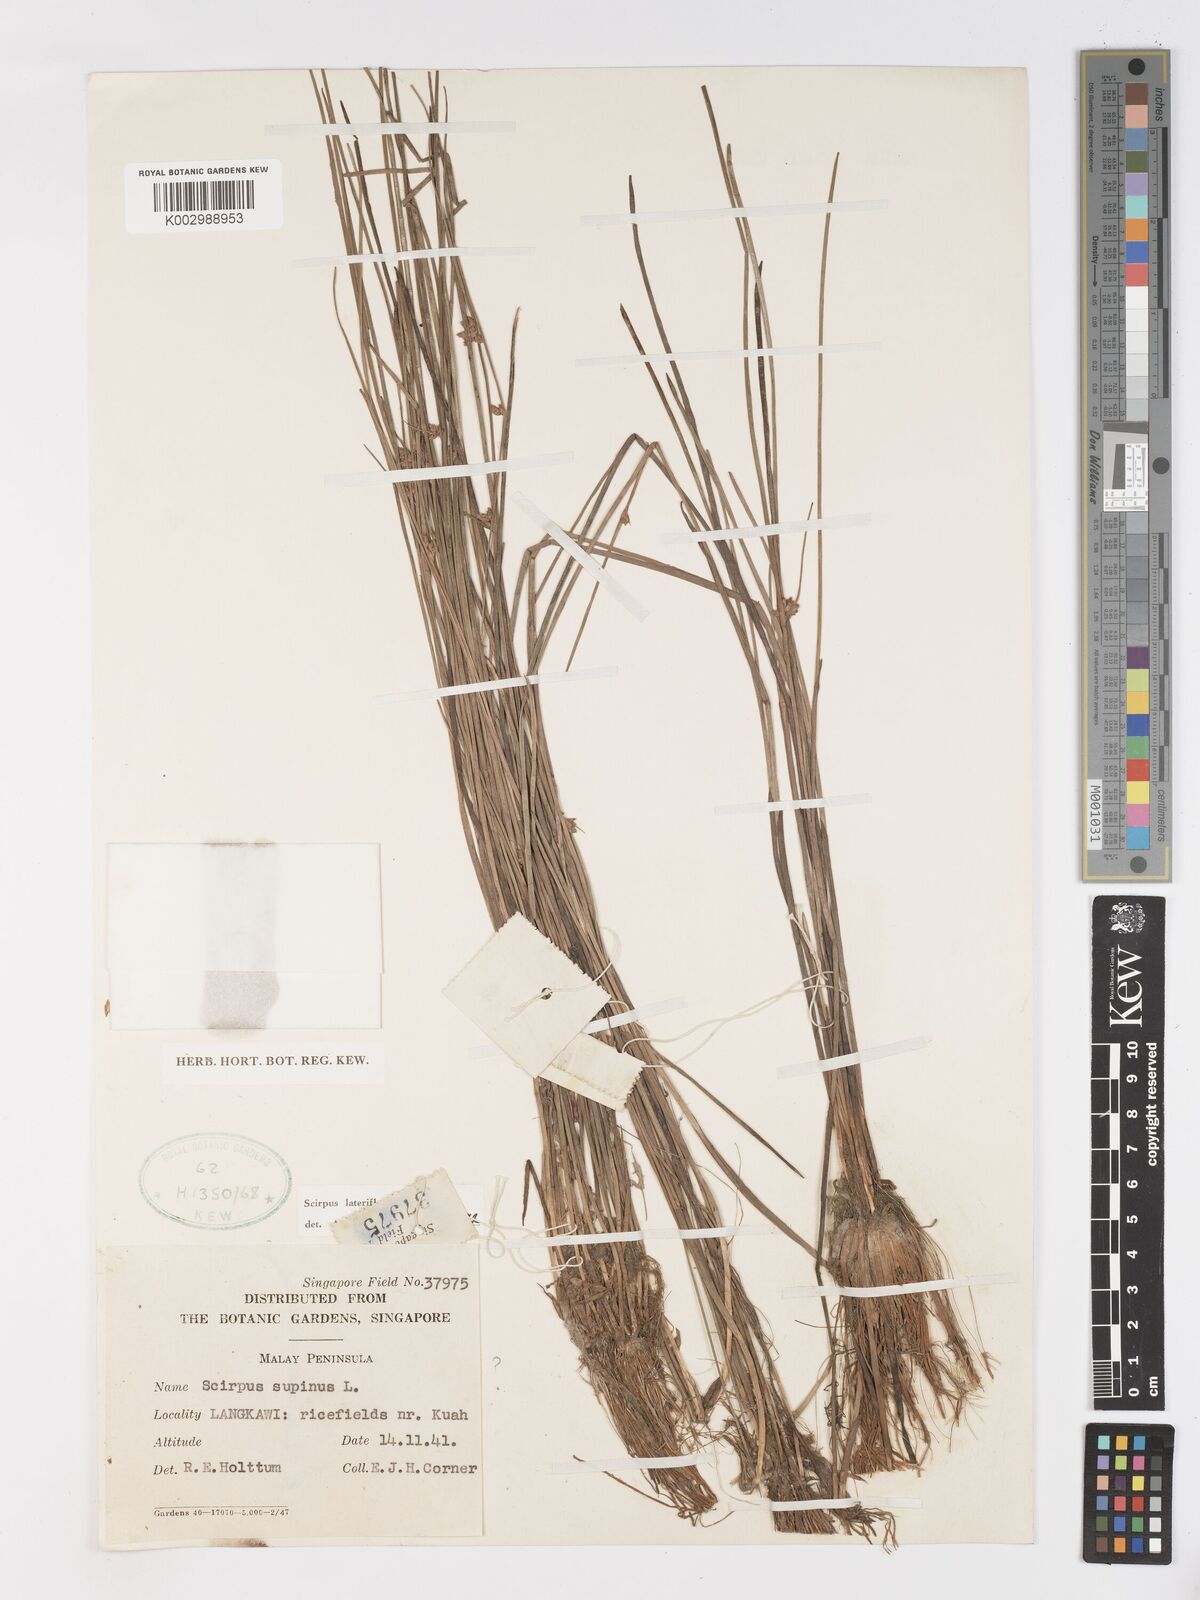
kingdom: Plantae
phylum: Tracheophyta
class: Liliopsida
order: Poales
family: Cyperaceae
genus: Schoenoplectiella
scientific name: Schoenoplectiella lateriflora
